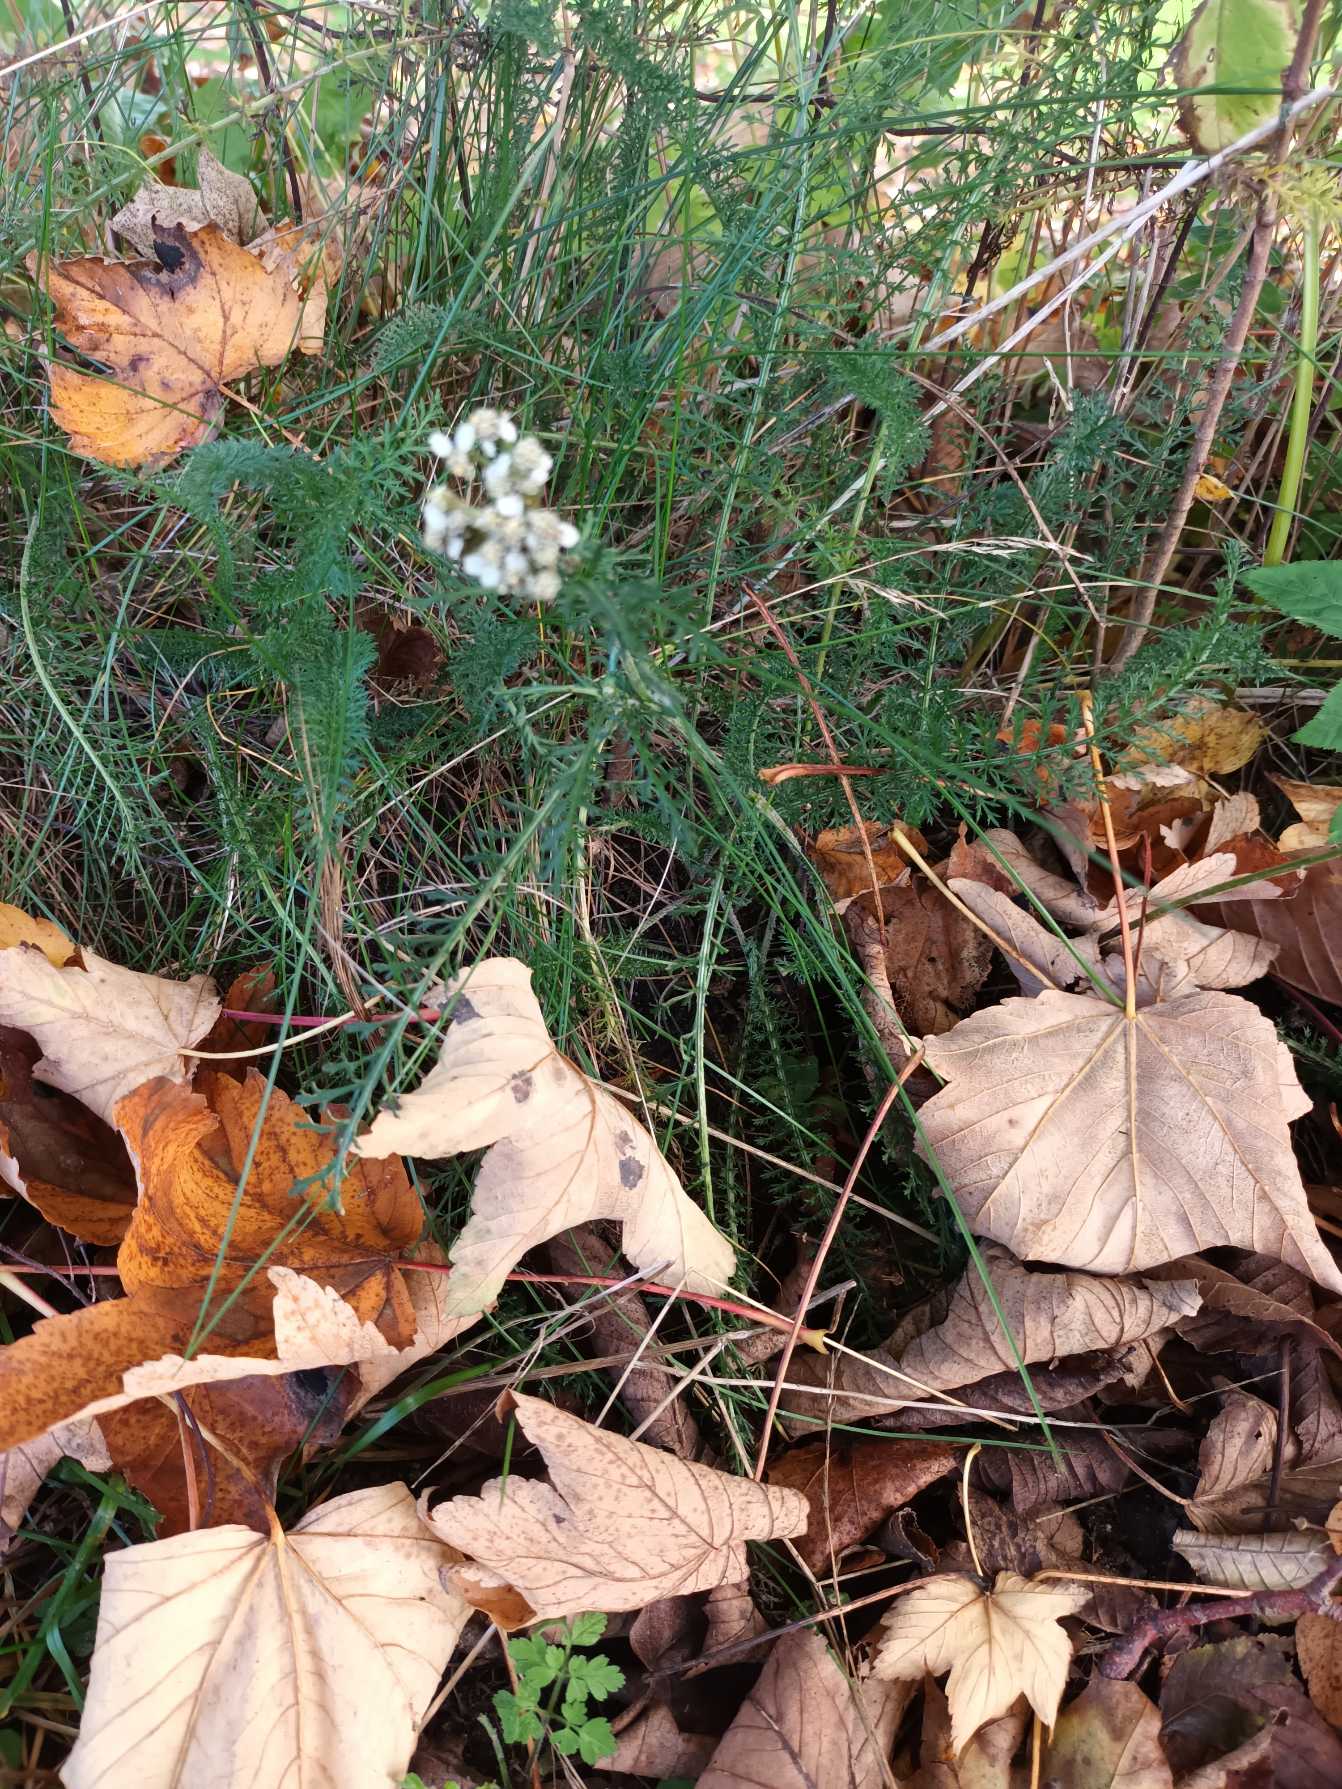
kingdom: Plantae
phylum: Tracheophyta
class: Magnoliopsida
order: Asterales
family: Asteraceae
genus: Achillea
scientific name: Achillea millefolium
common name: Almindelig røllike
